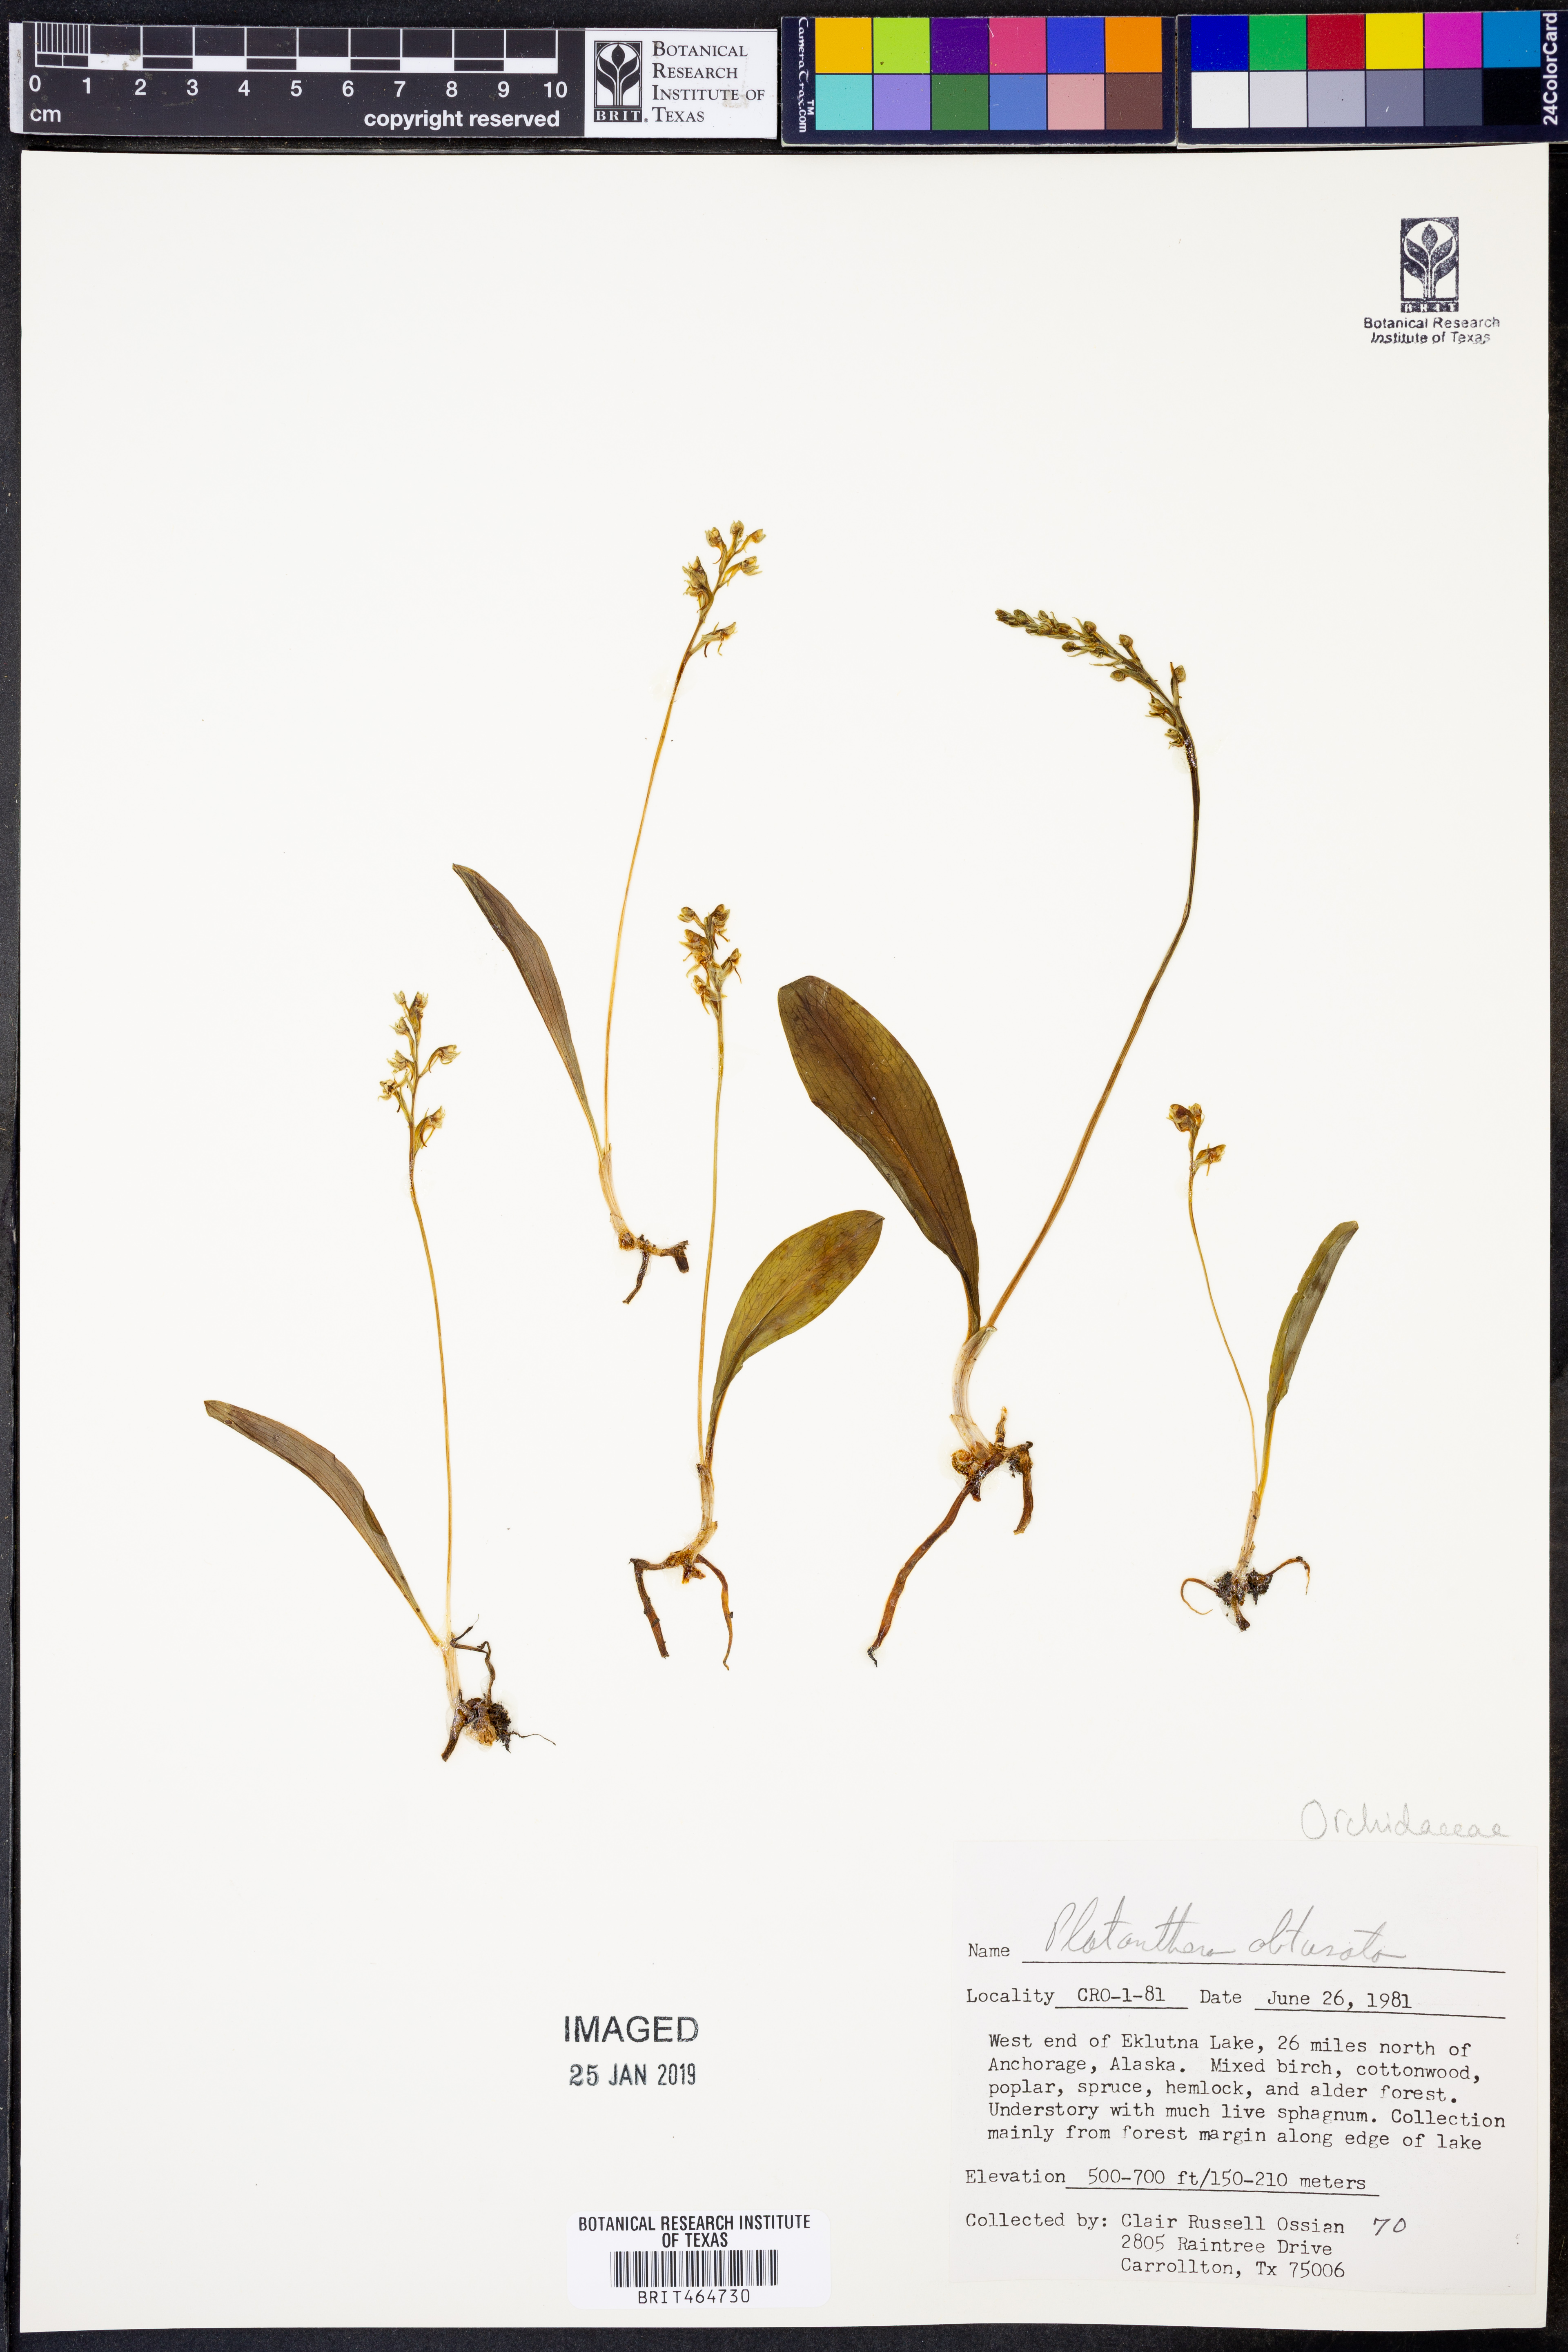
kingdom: Plantae
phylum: Tracheophyta
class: Liliopsida
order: Asparagales
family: Orchidaceae
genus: Platanthera
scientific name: Platanthera obtusata
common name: Blunt bog orchid
